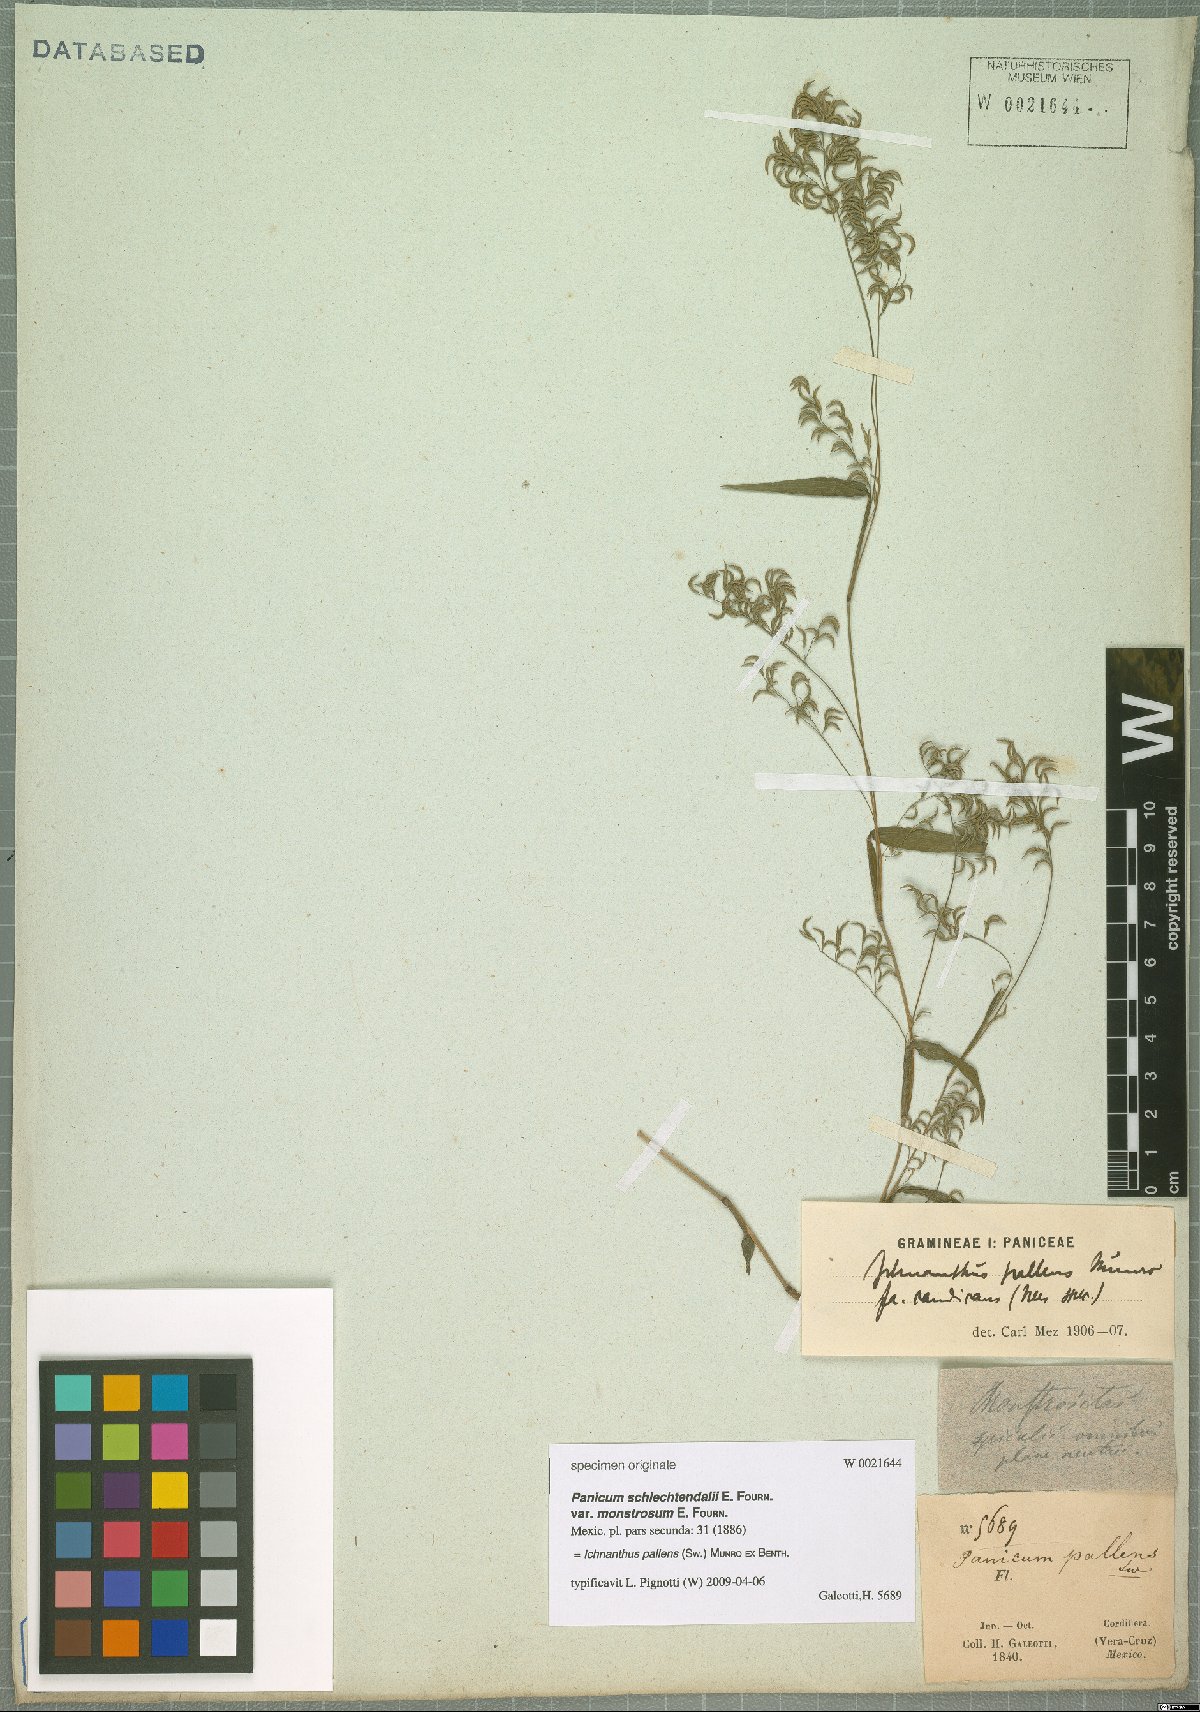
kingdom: Plantae
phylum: Tracheophyta
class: Liliopsida
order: Poales
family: Poaceae
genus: Ichnanthus
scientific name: Ichnanthus pallens
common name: Water grass
